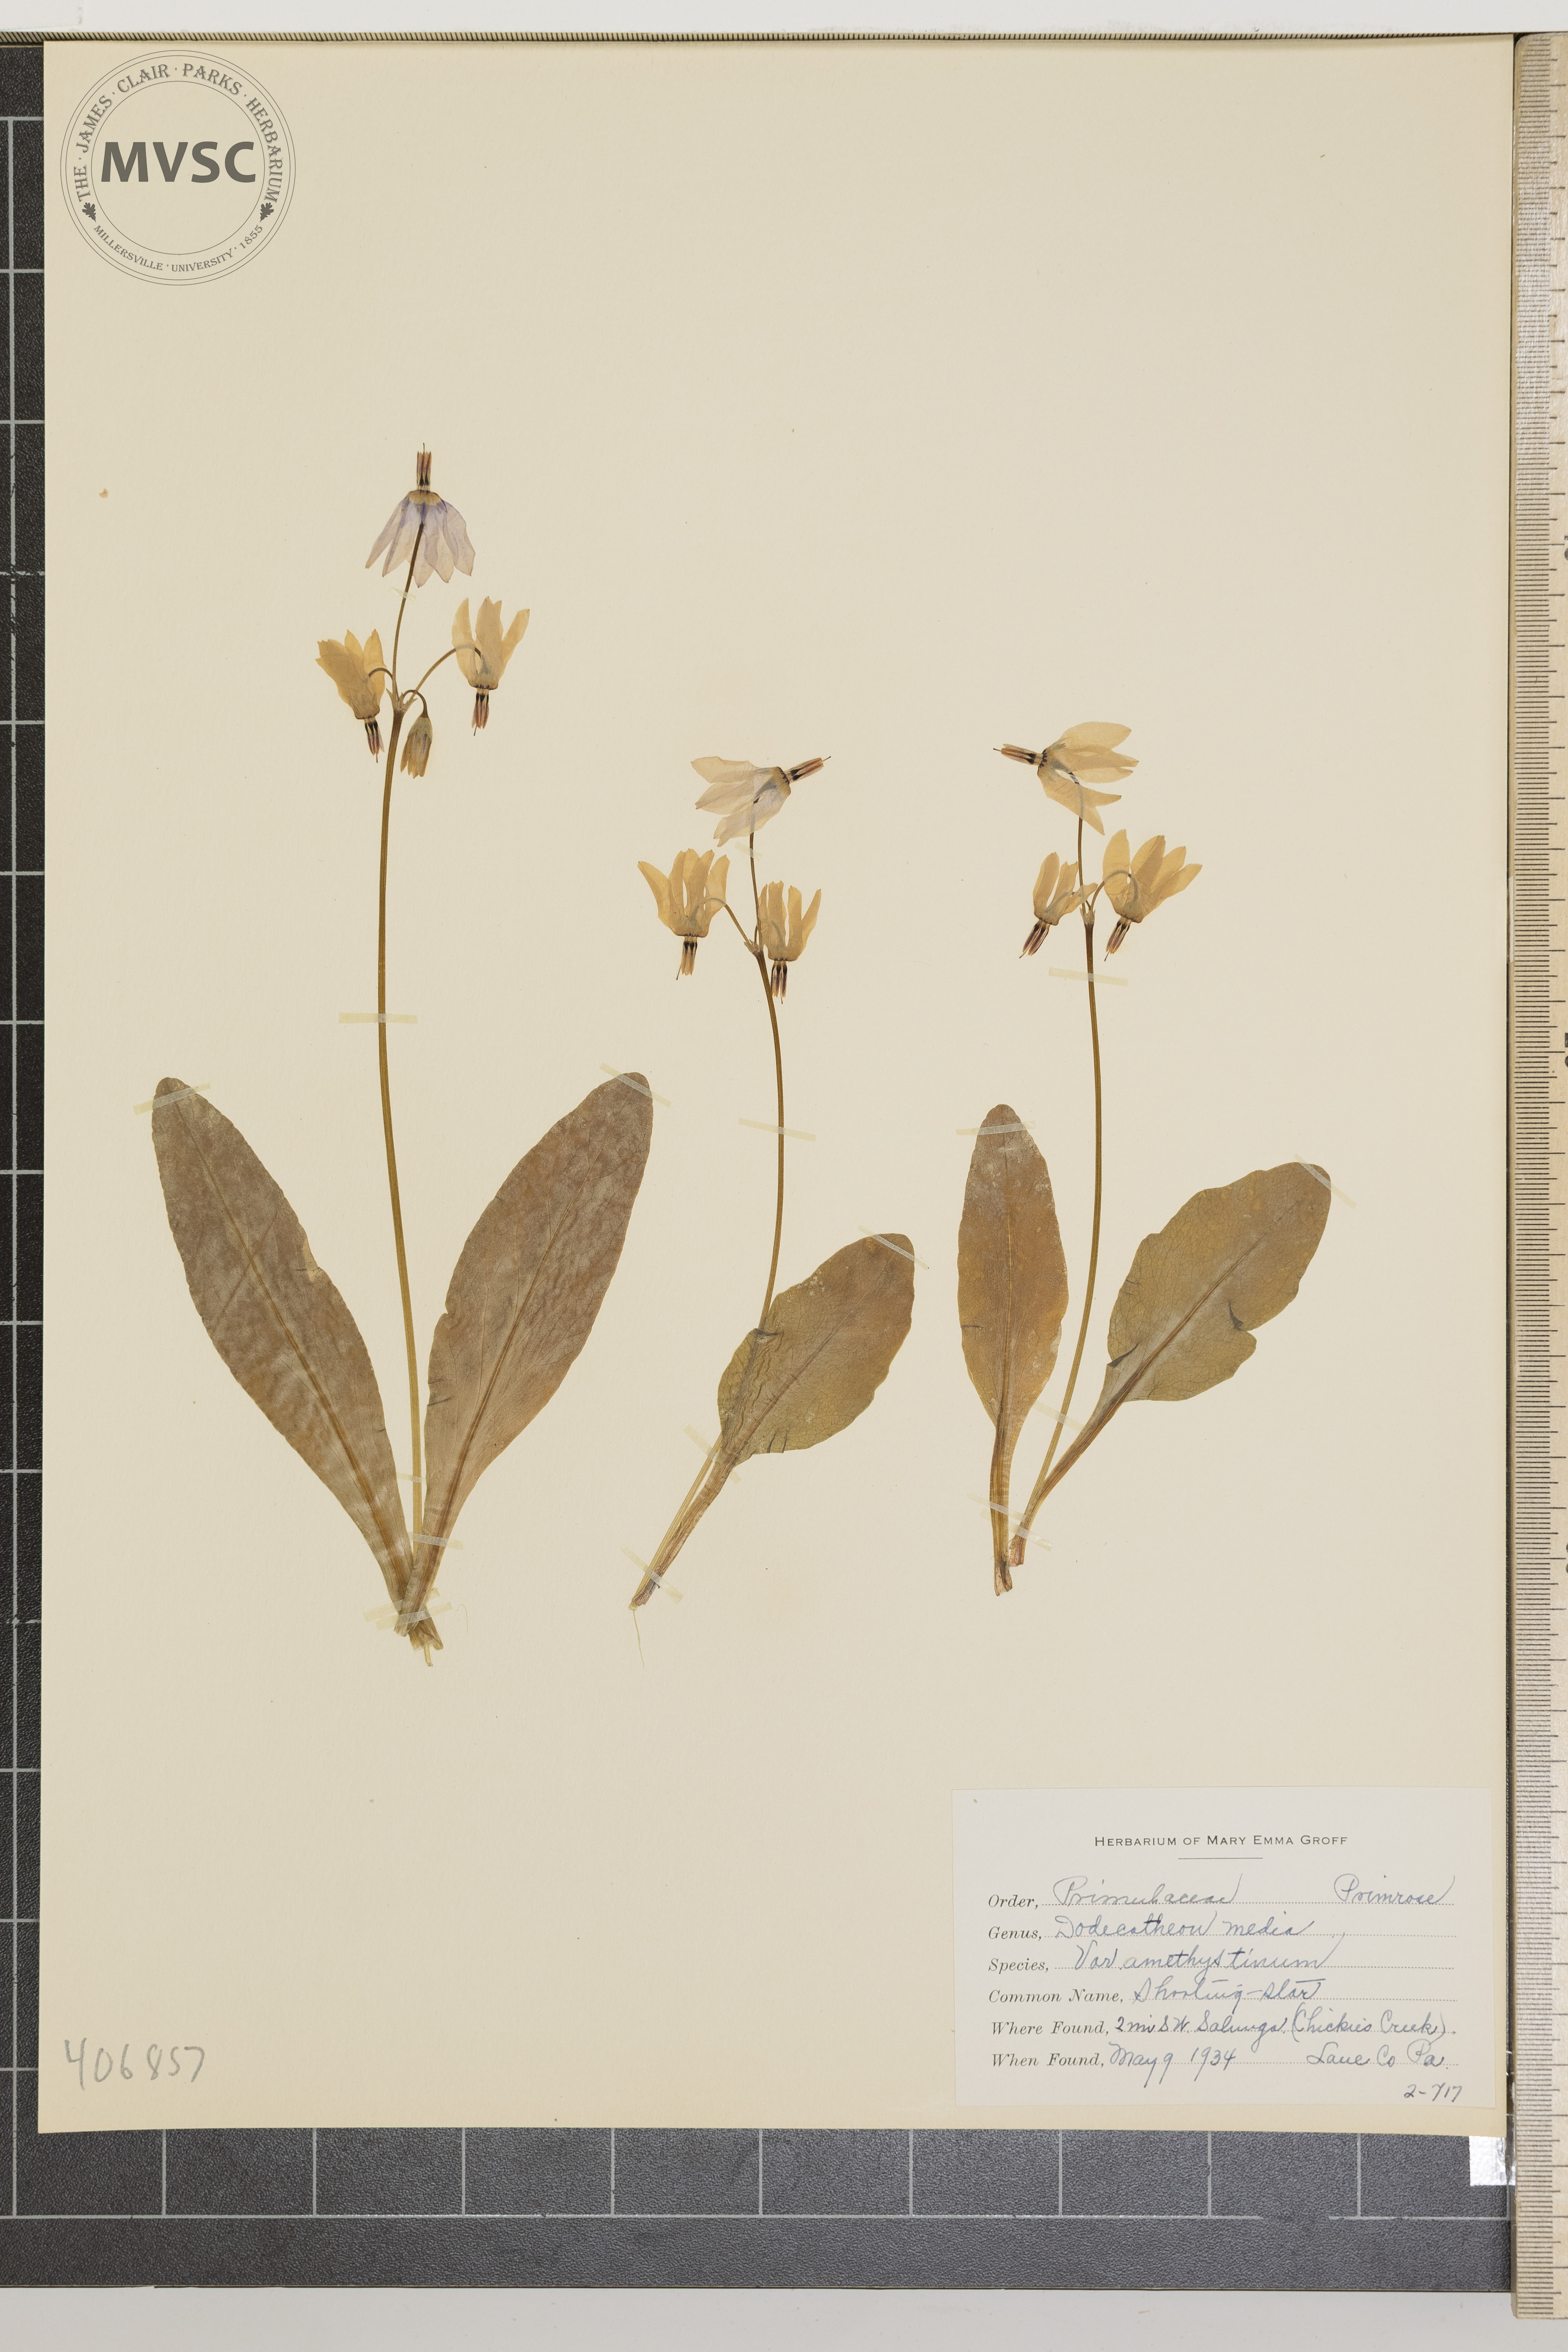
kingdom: Plantae
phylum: Tracheophyta
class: Magnoliopsida
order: Ericales
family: Primulaceae
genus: Dodecatheon
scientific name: Dodecatheon meadia
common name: jeweled shootingstar
